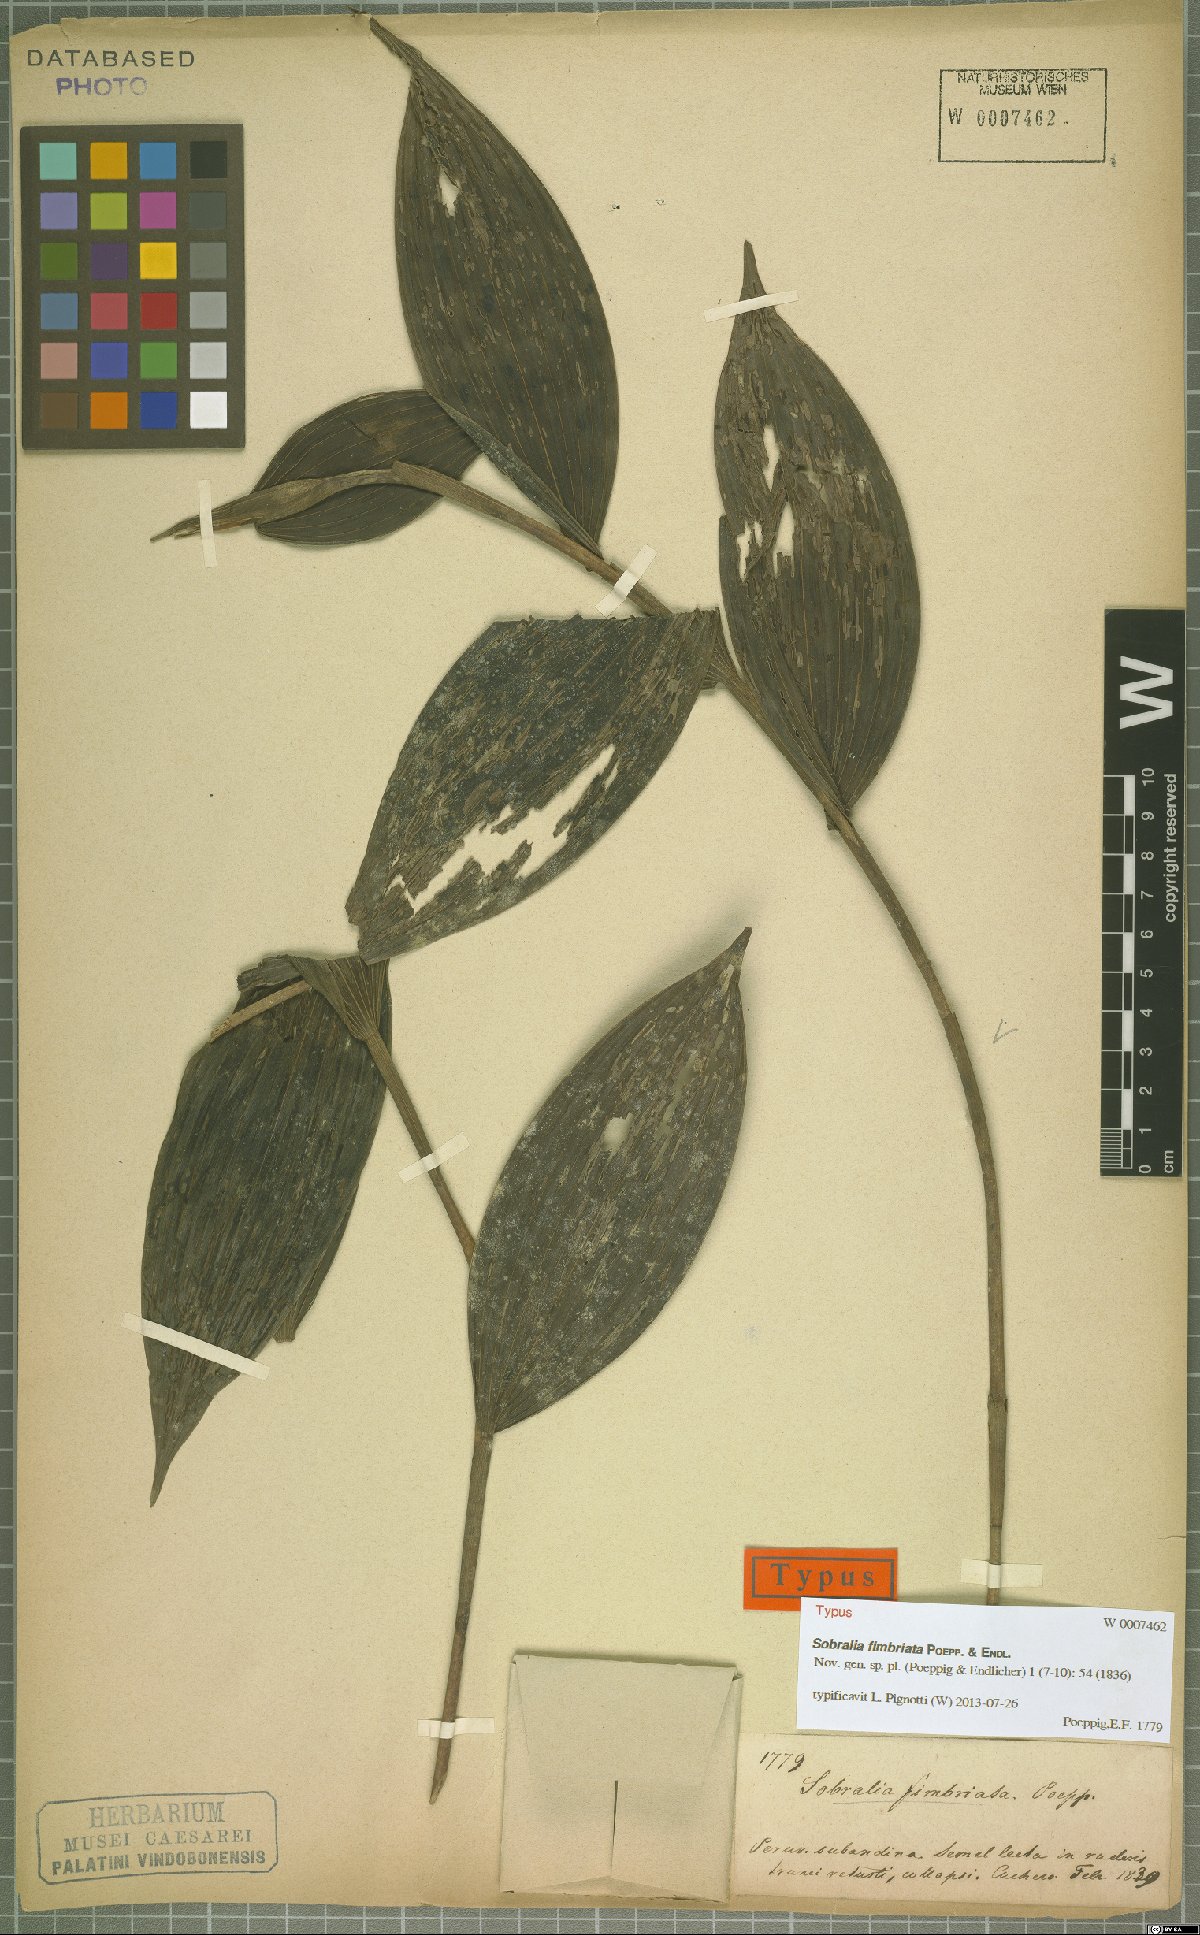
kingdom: Plantae
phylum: Tracheophyta
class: Liliopsida
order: Asparagales
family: Orchidaceae
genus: Sobralia
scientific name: Sobralia fimbriata
